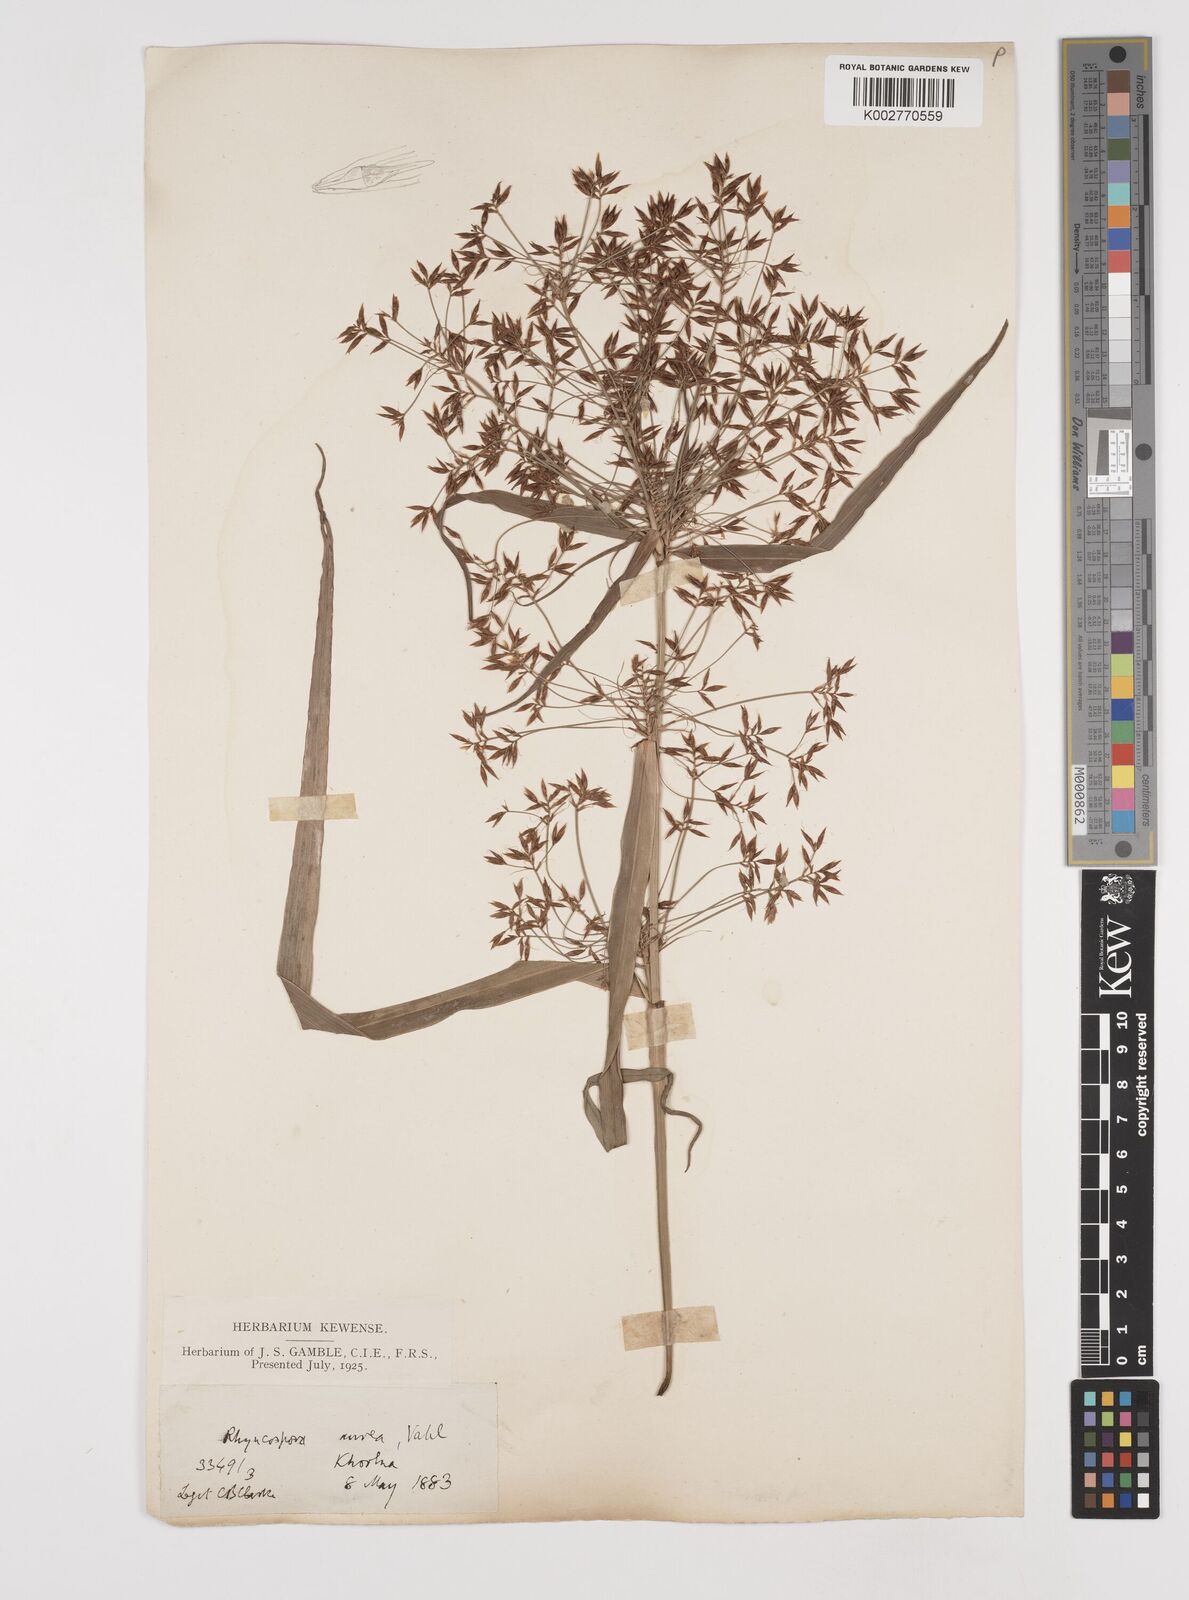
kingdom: Plantae
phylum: Tracheophyta
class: Liliopsida
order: Poales
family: Cyperaceae
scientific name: Cyperaceae
